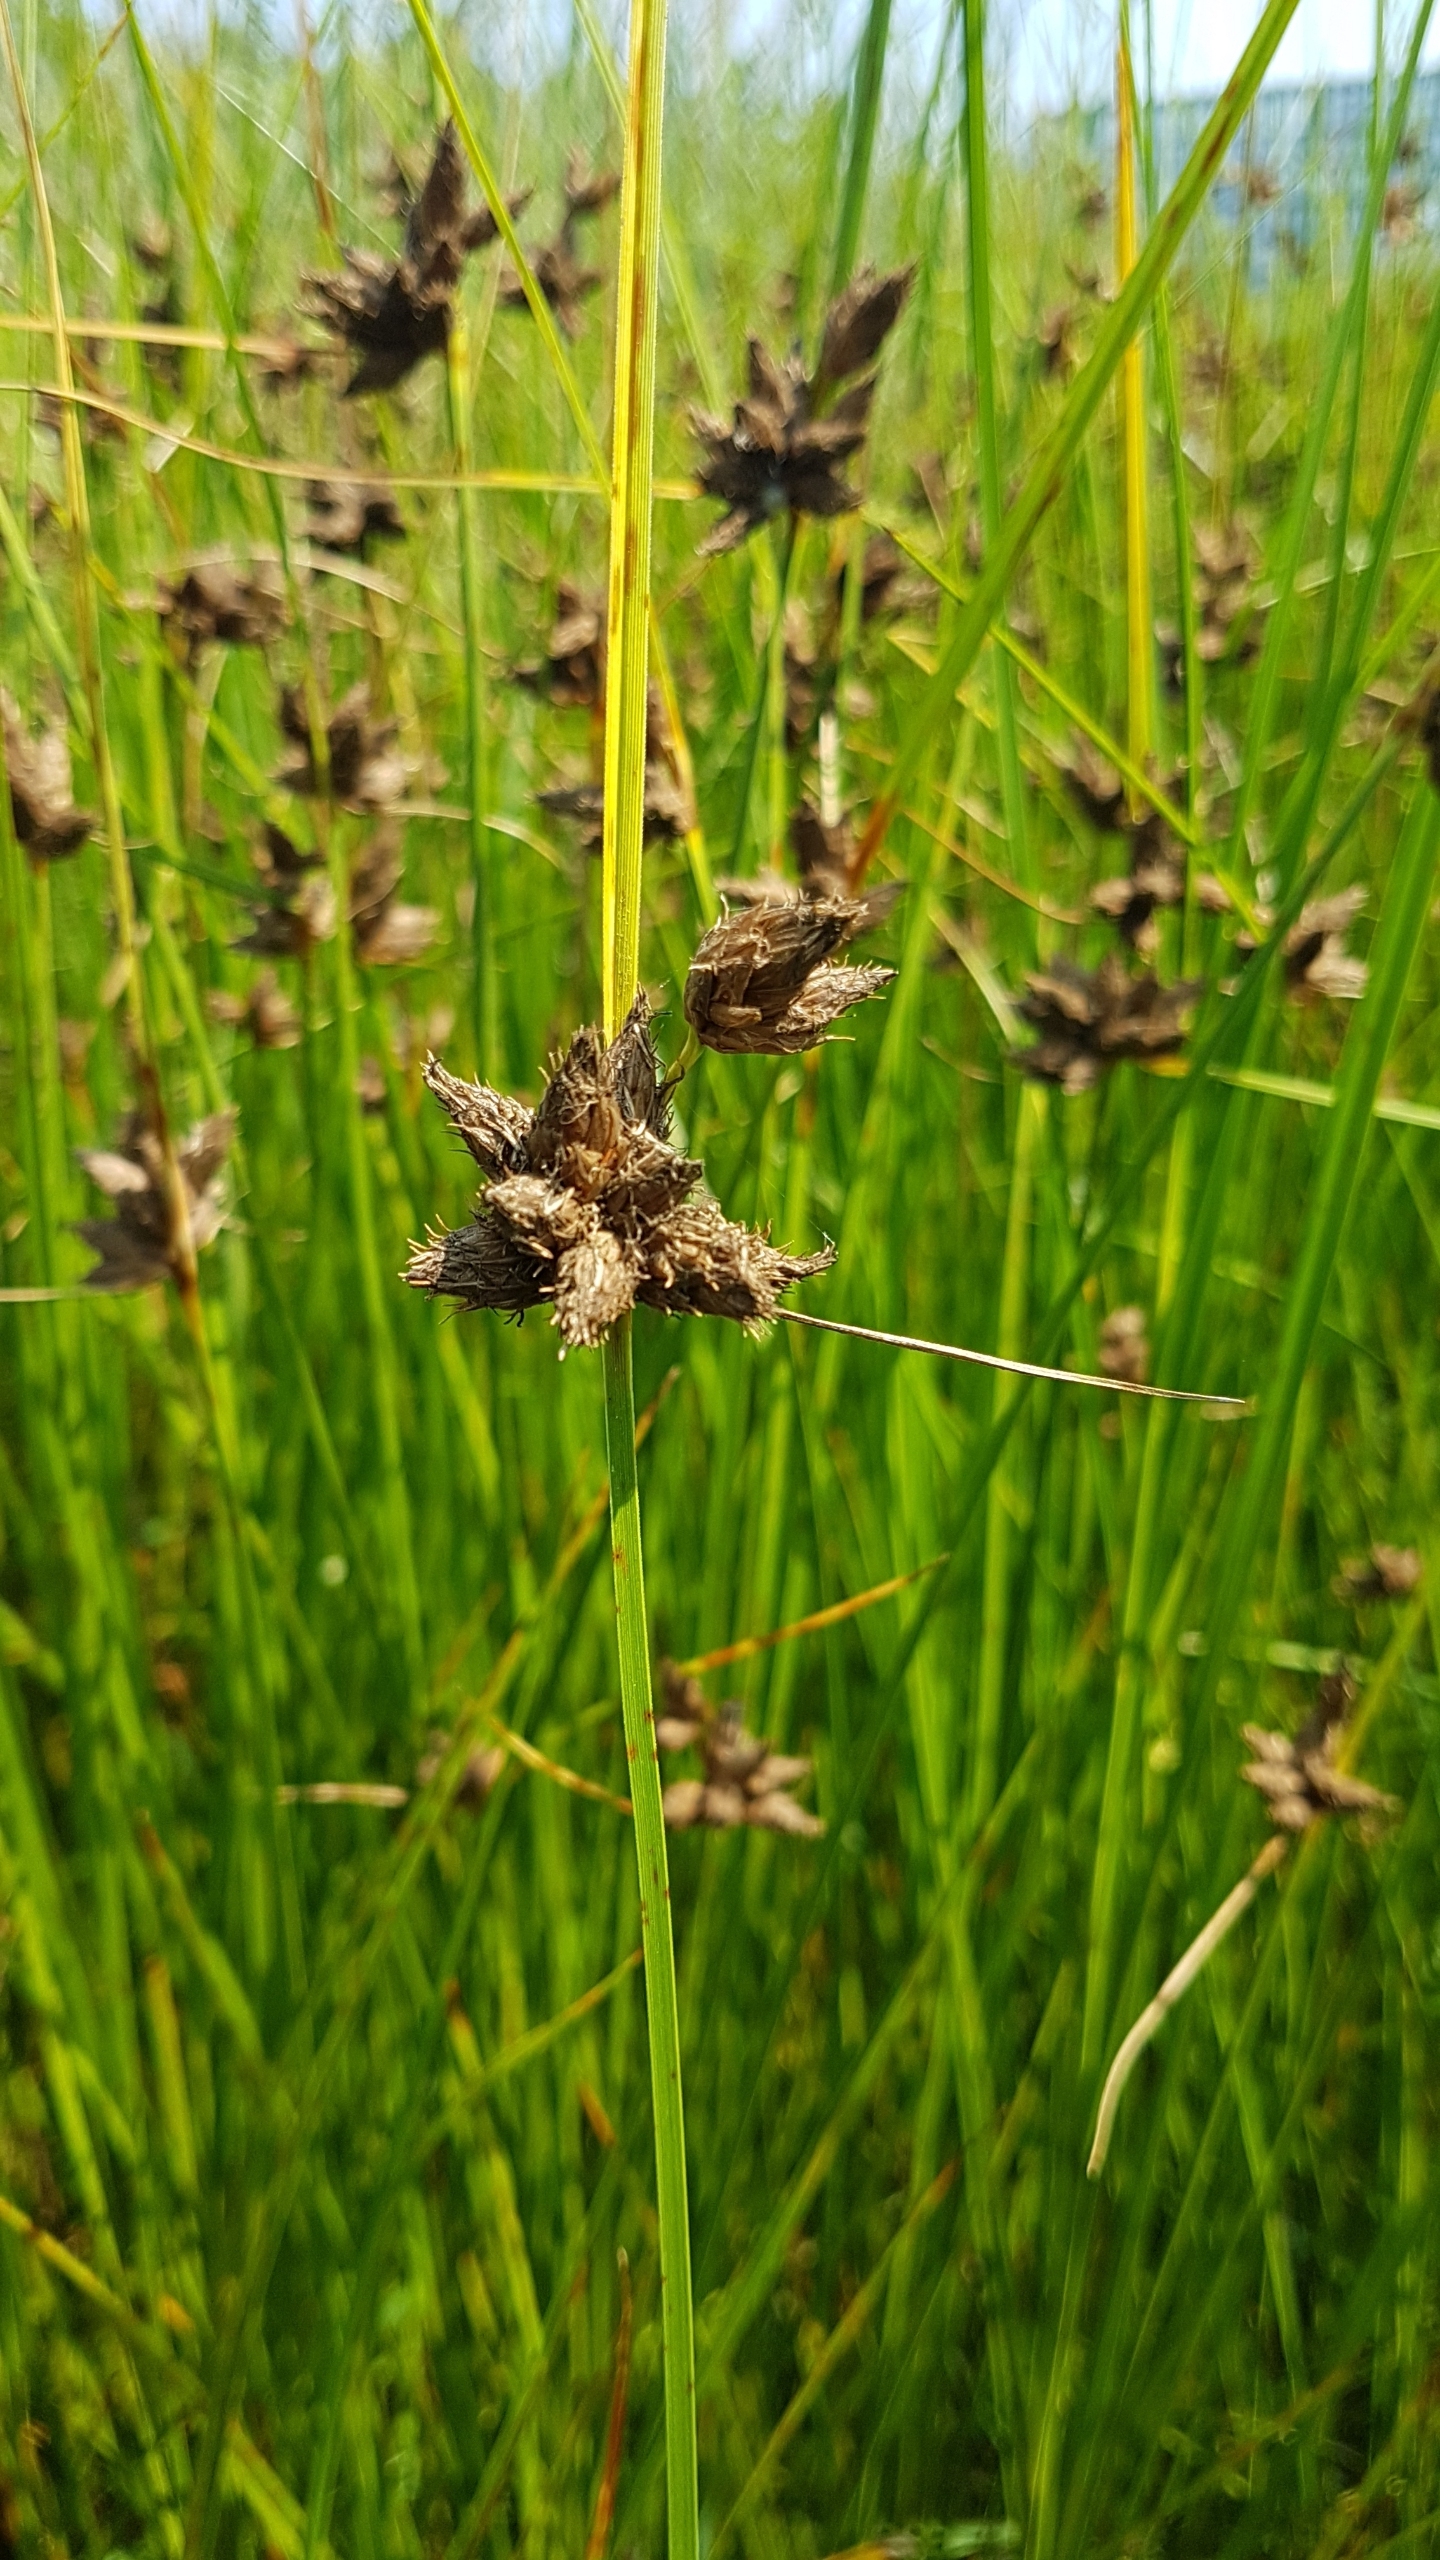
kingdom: Plantae
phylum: Tracheophyta
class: Liliopsida
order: Poales
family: Cyperaceae
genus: Bolboschoenus
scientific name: Bolboschoenus maritimus
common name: Strand-kogleaks
